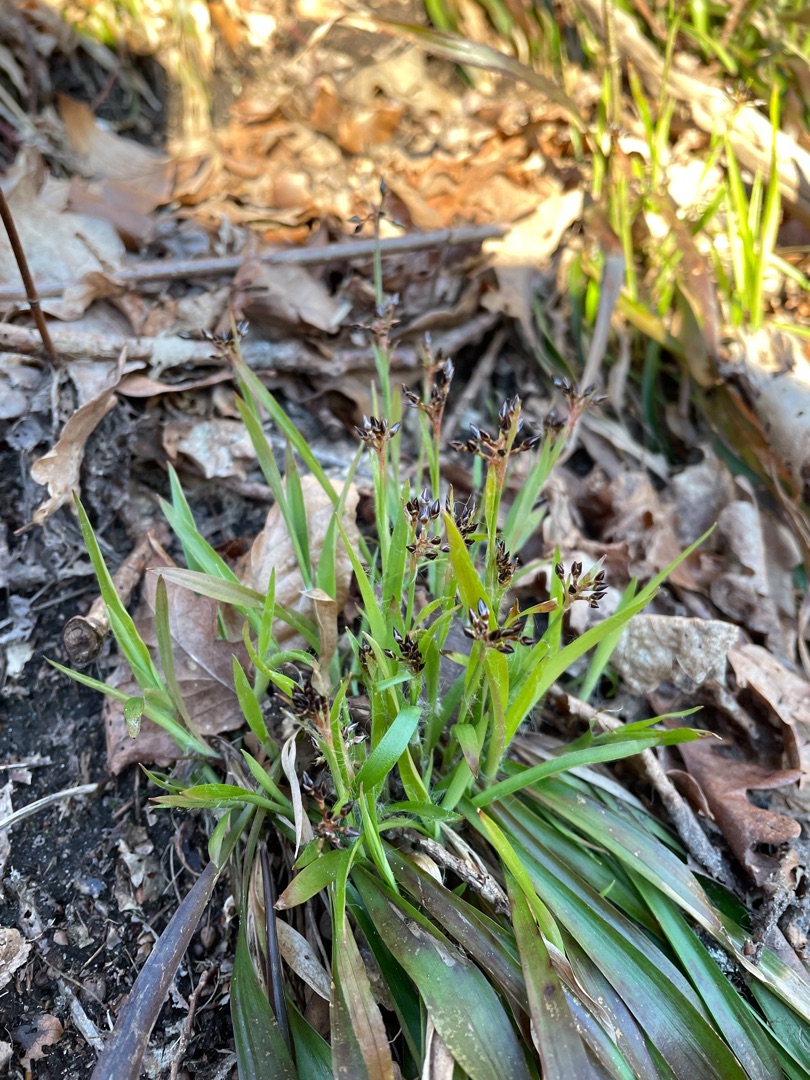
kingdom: Plantae
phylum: Tracheophyta
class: Liliopsida
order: Poales
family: Juncaceae
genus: Luzula
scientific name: Luzula pilosa
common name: Håret frytle
